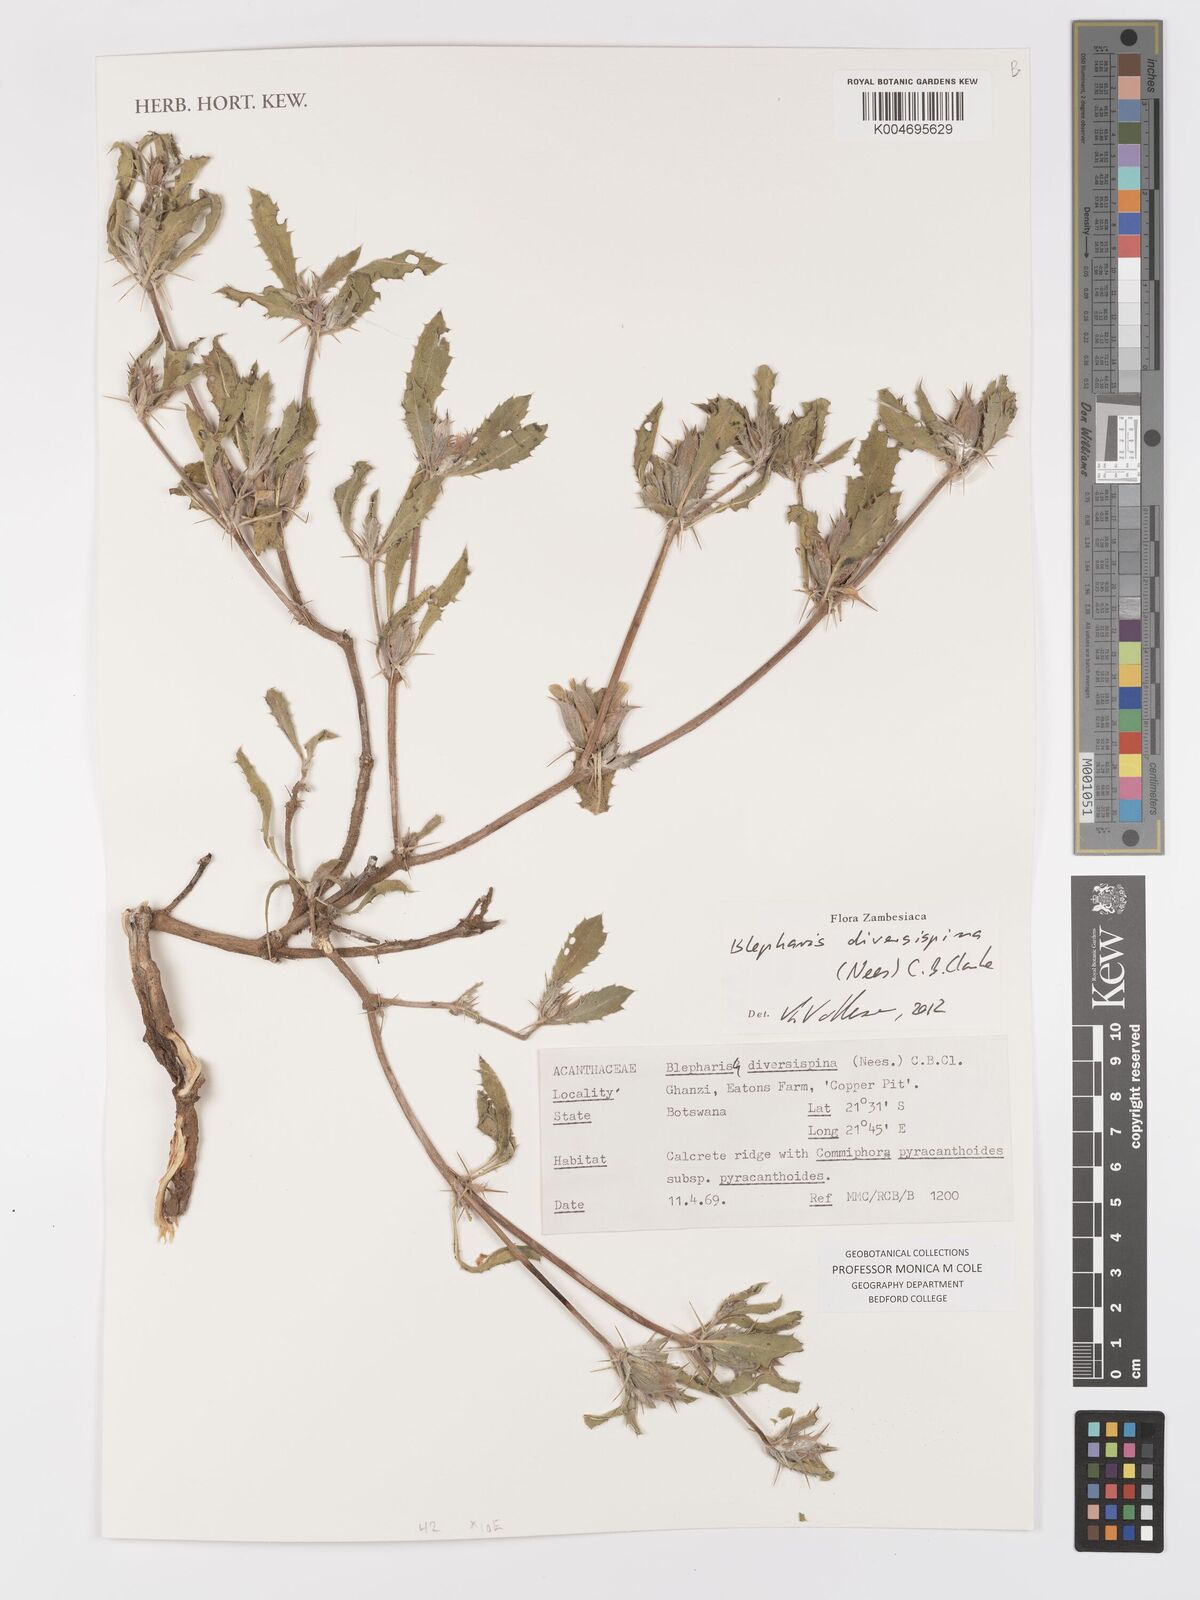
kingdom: Plantae
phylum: Tracheophyta
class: Magnoliopsida
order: Lamiales
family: Acanthaceae
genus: Blepharis
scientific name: Blepharis diversispina
